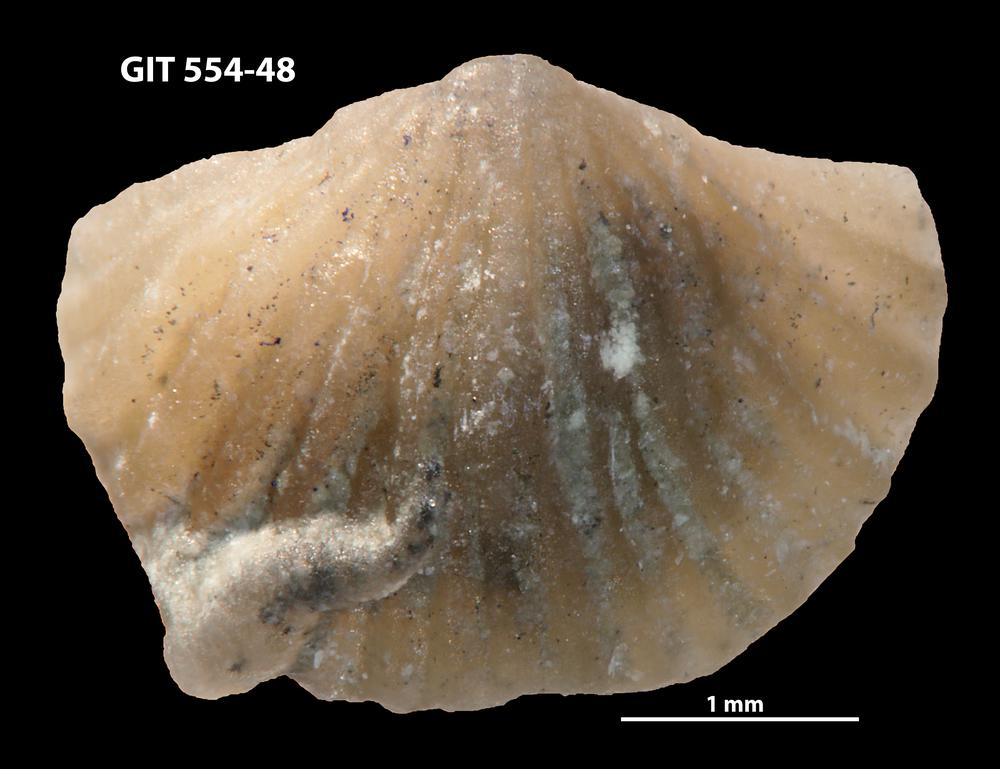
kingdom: Animalia
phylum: Brachiopoda
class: Rhynchonellata
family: Skenidiidae
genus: Skenidioides
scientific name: Skenidioides hymiri
